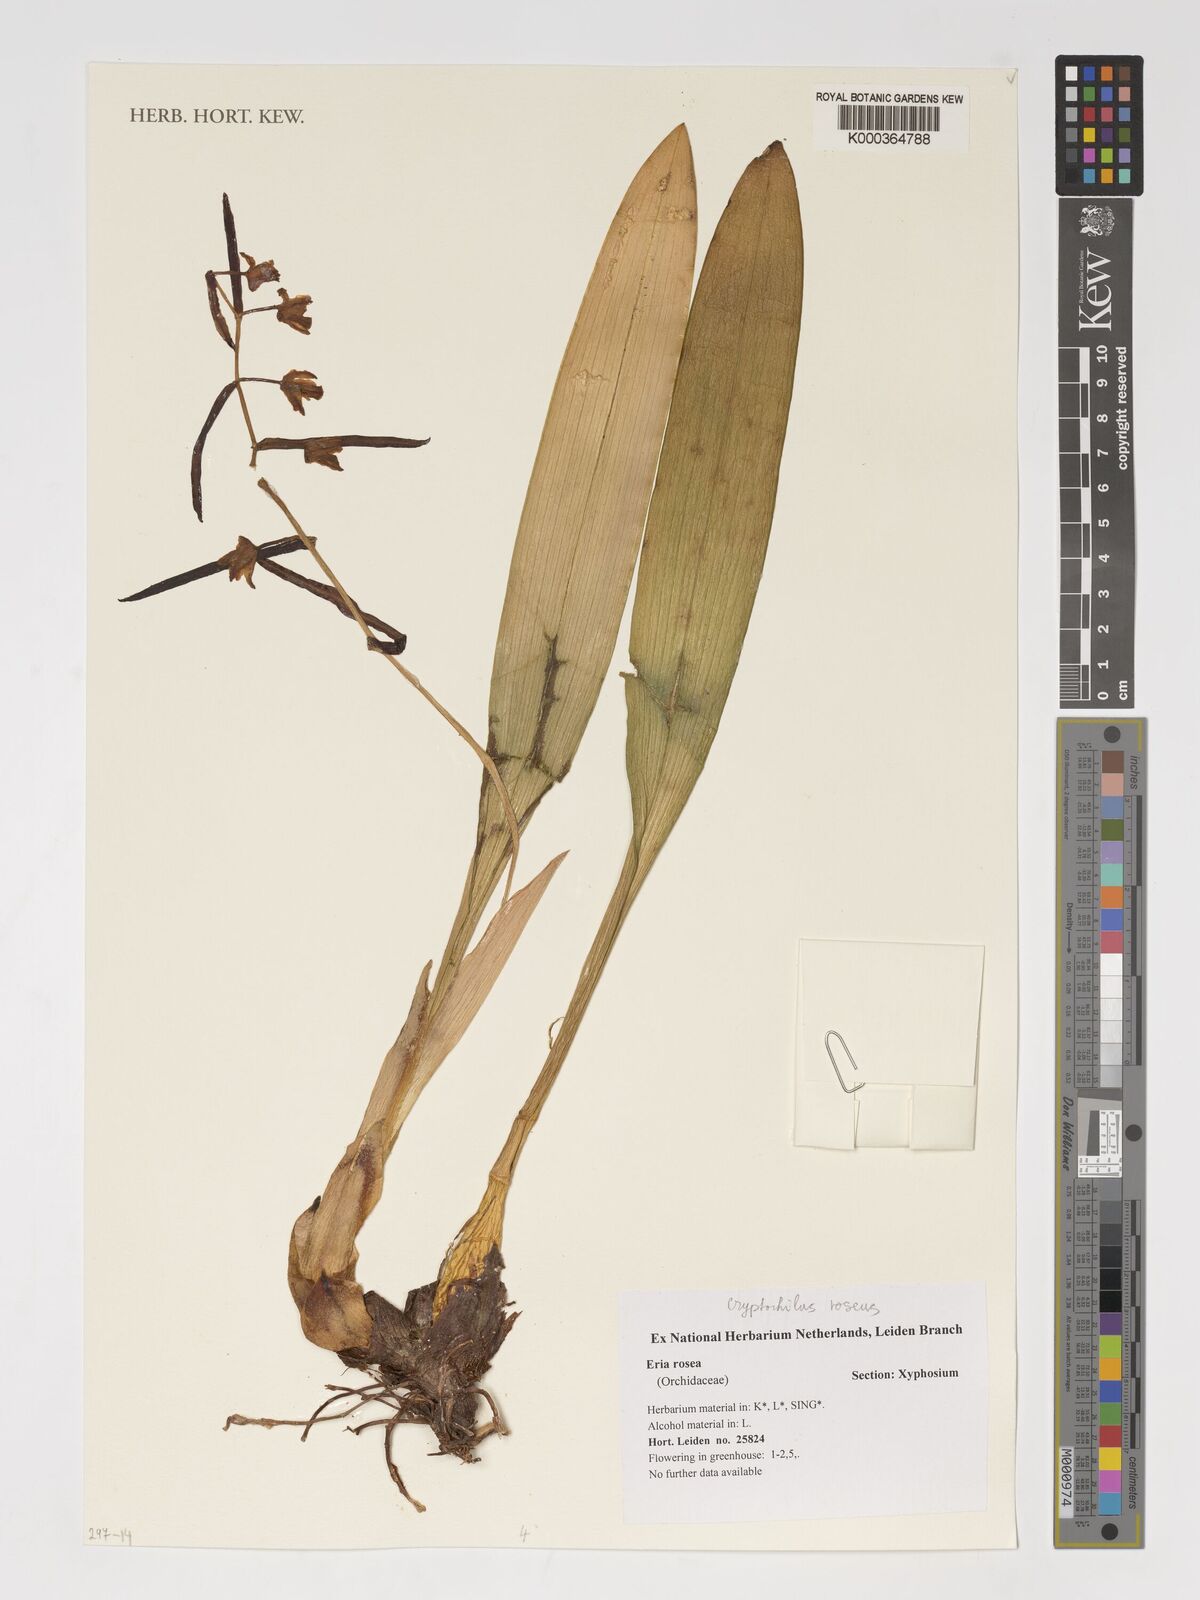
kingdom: Plantae
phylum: Tracheophyta
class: Liliopsida
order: Asparagales
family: Orchidaceae
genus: Cryptochilus
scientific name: Cryptochilus roseus
